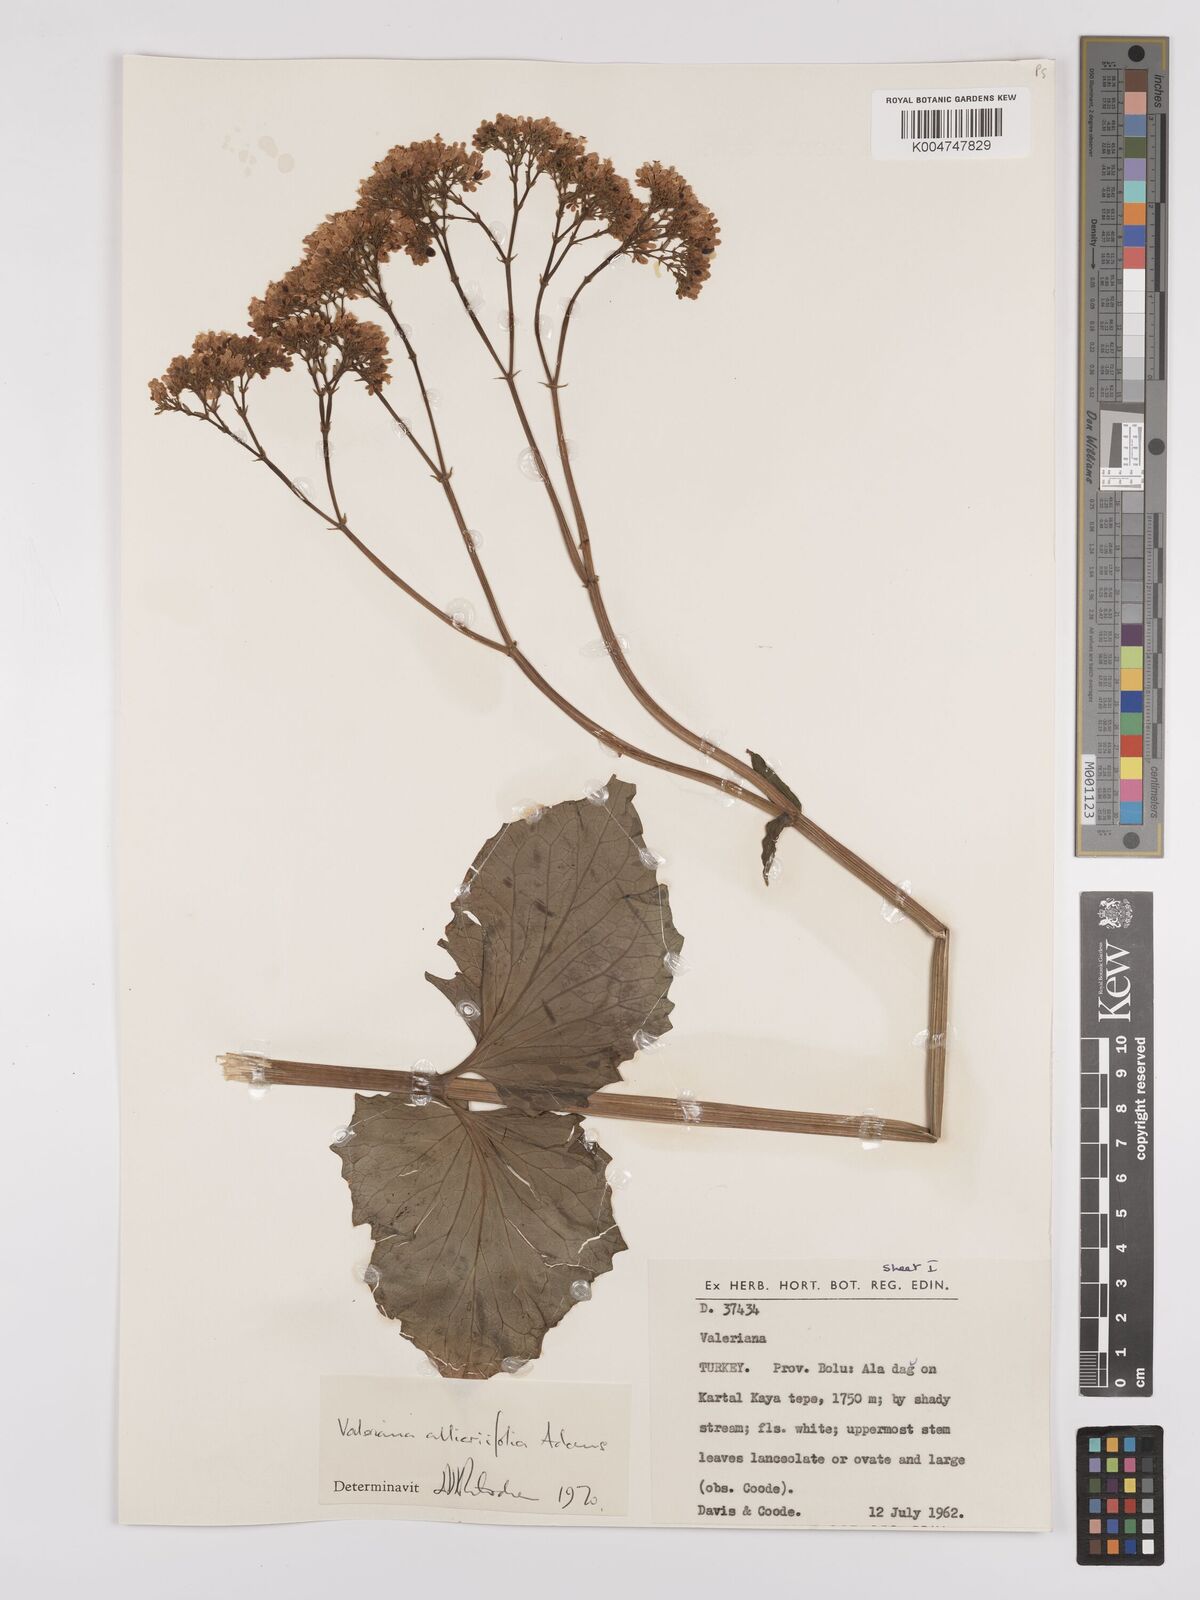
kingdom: Plantae
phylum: Tracheophyta
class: Magnoliopsida
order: Dipsacales
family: Caprifoliaceae
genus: Valeriana
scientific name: Valeriana
